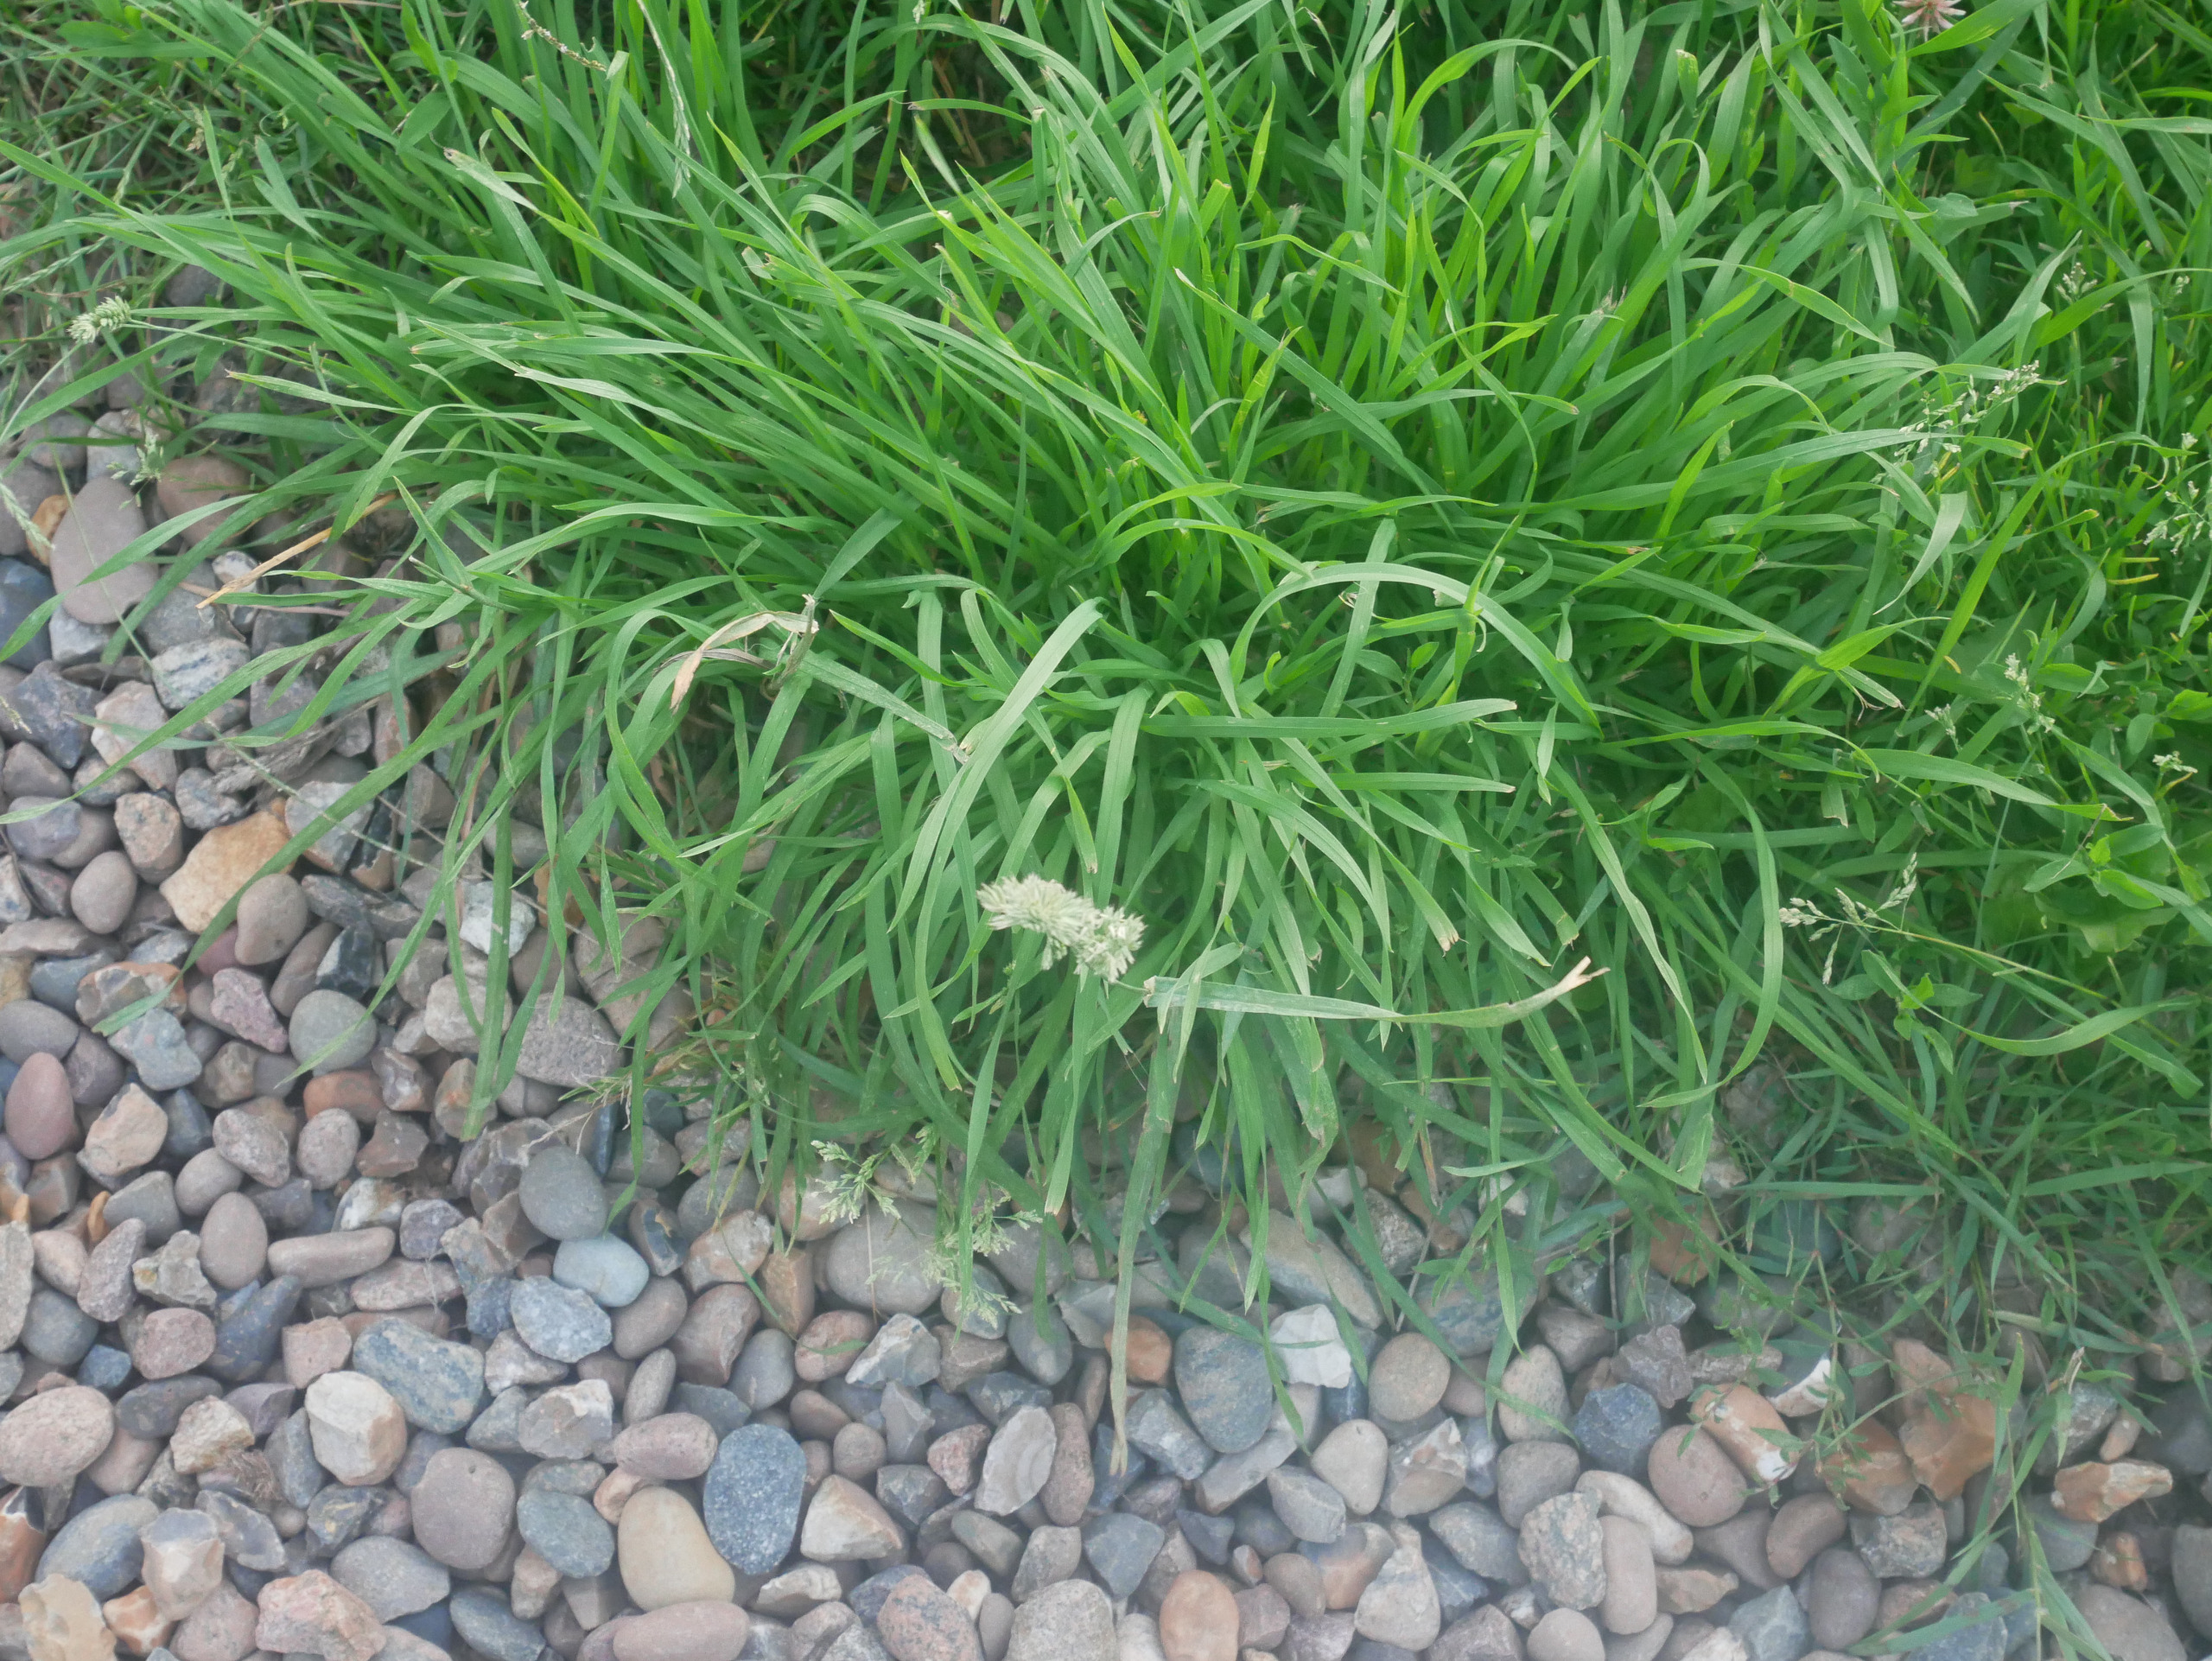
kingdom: Plantae
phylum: Tracheophyta
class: Liliopsida
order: Poales
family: Poaceae
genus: Dactylis
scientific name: Dactylis glomerata
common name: Almindelig hundegræs
